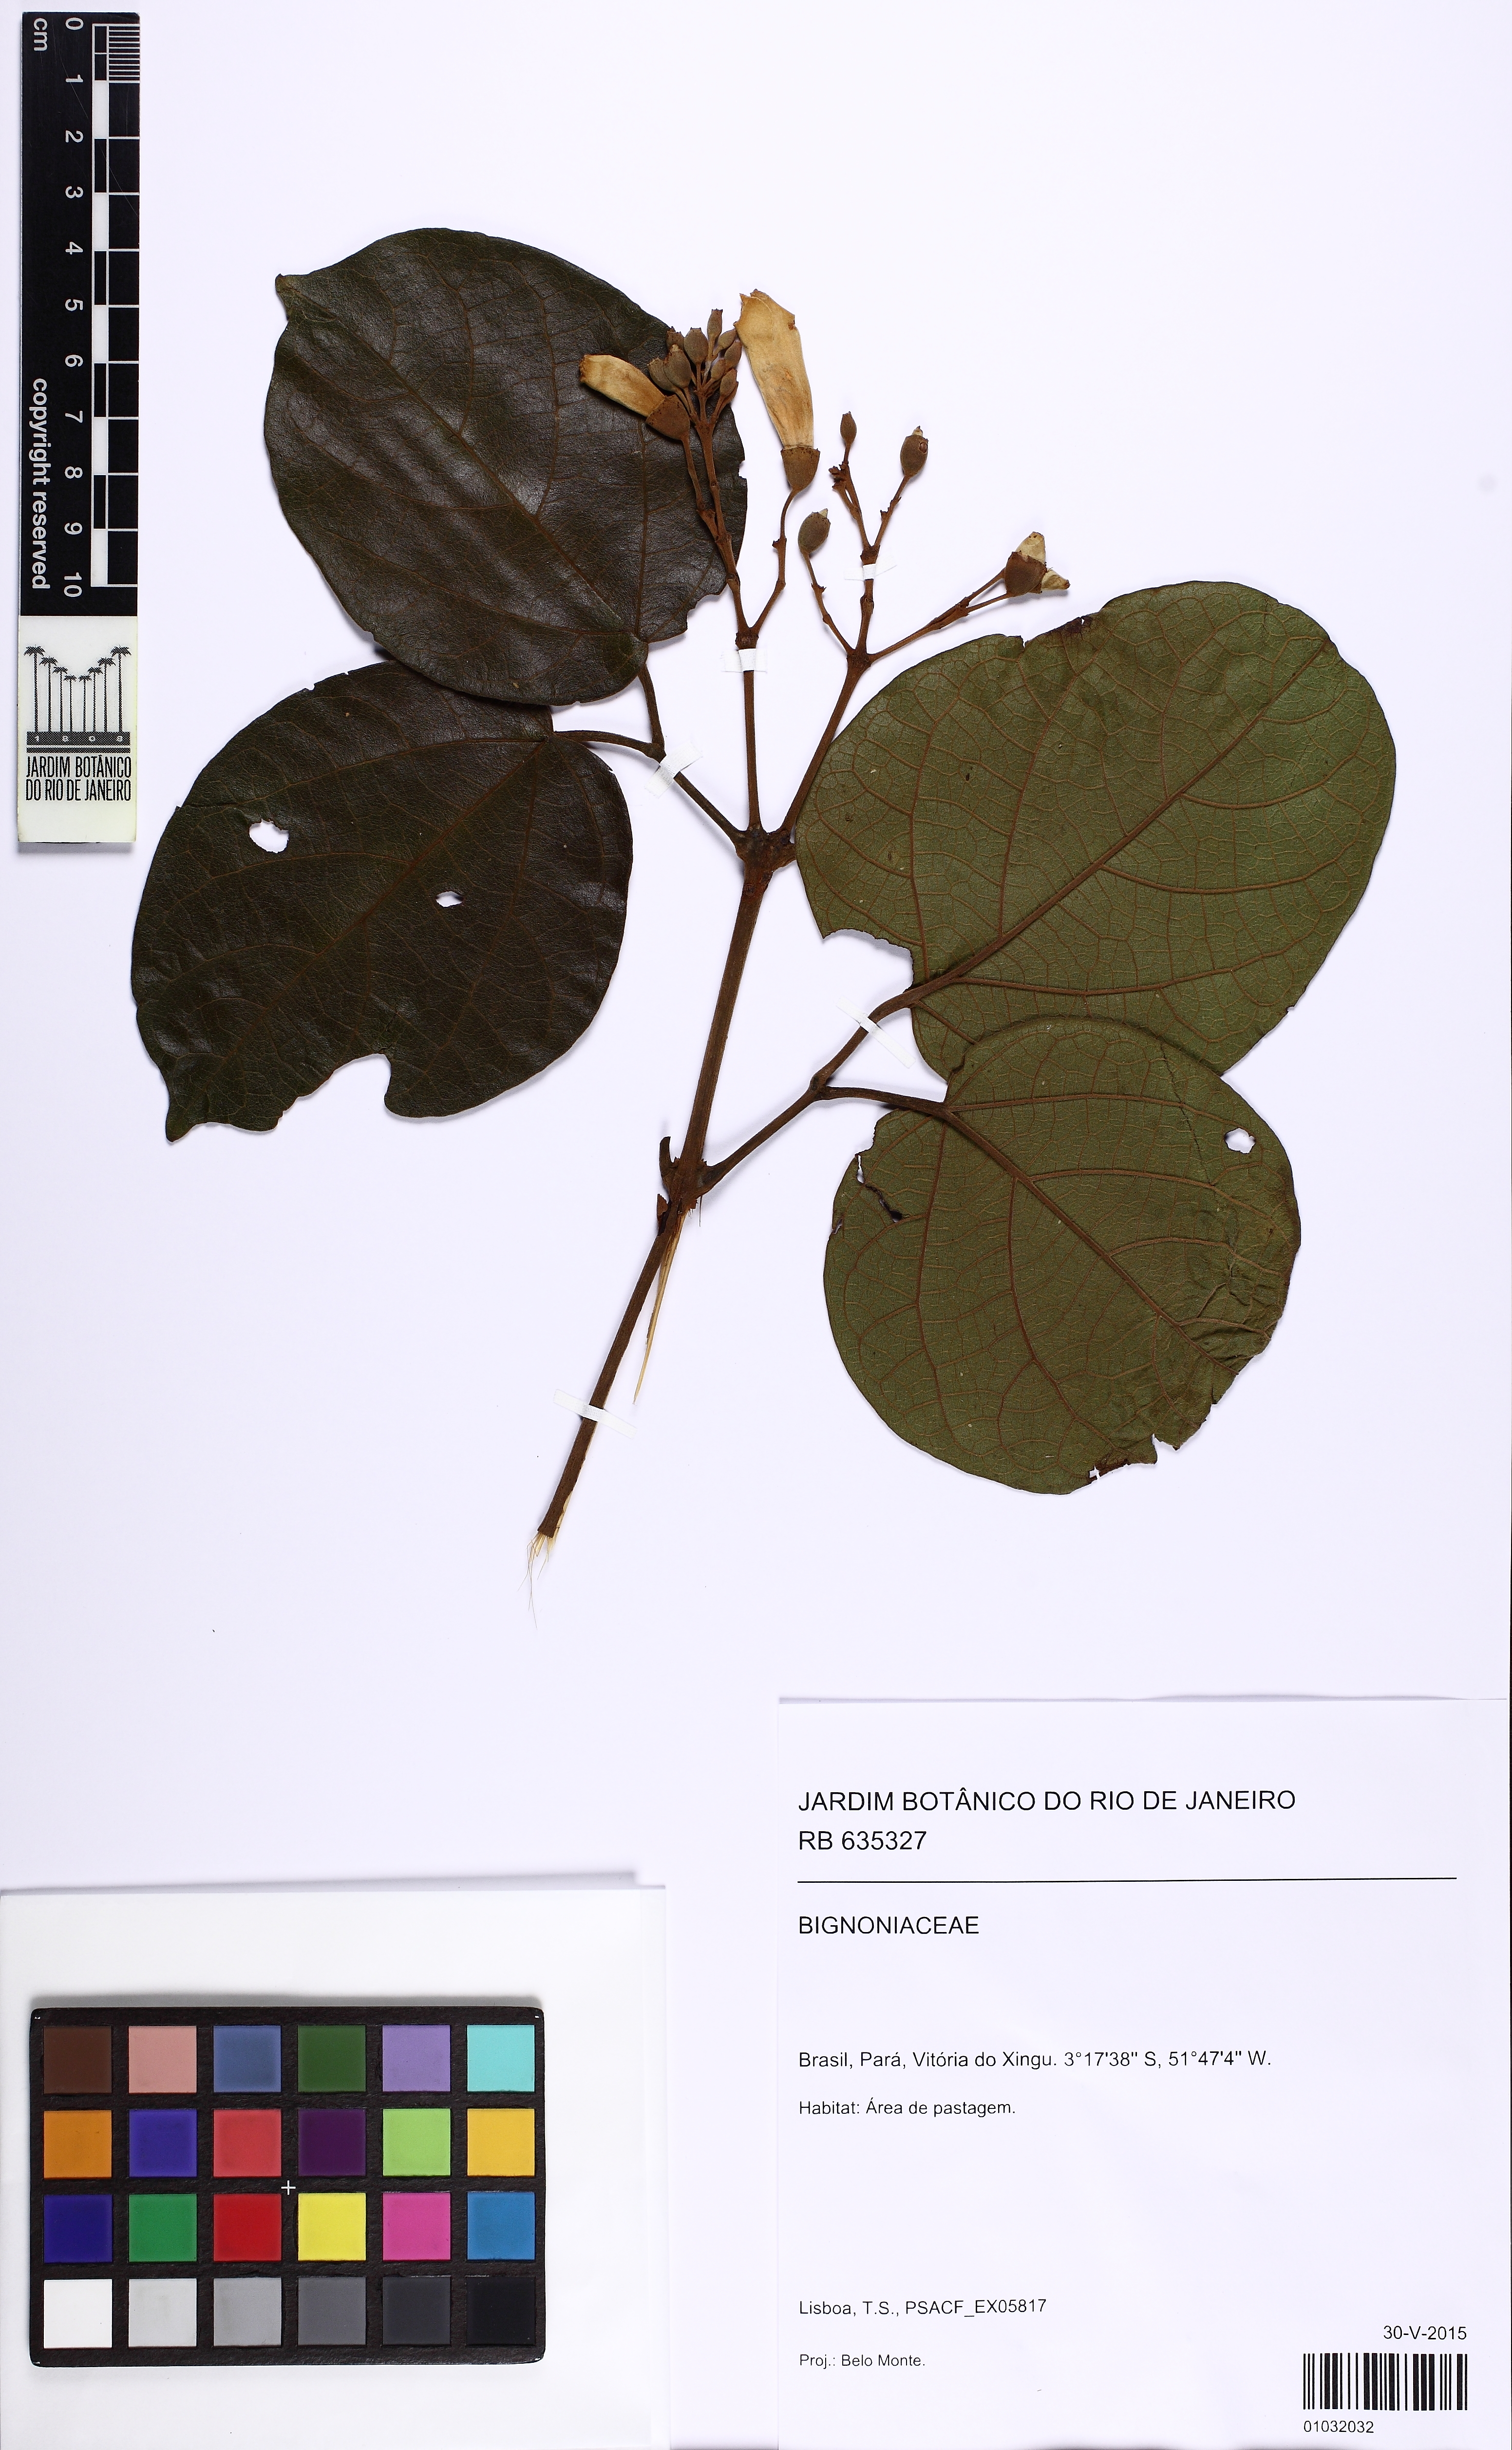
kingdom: Plantae
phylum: Tracheophyta
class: Magnoliopsida
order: Lamiales
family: Bignoniaceae
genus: Amphilophium
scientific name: Amphilophium
